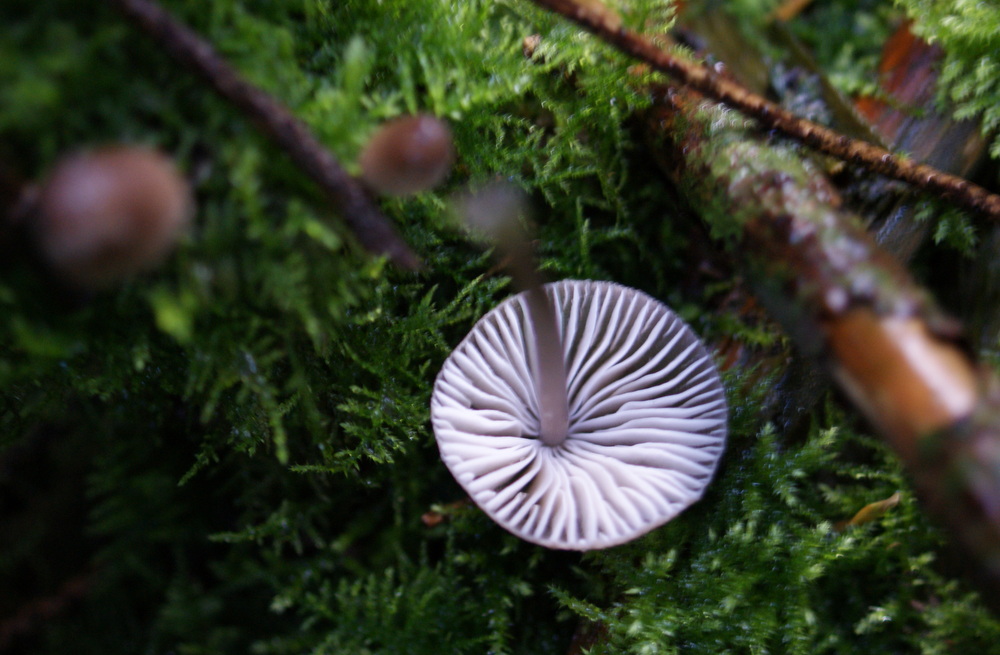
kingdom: Fungi
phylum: Basidiomycota
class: Agaricomycetes
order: Agaricales
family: Mycenaceae
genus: Mycena
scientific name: Mycena abramsii
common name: sommer-huesvamp
